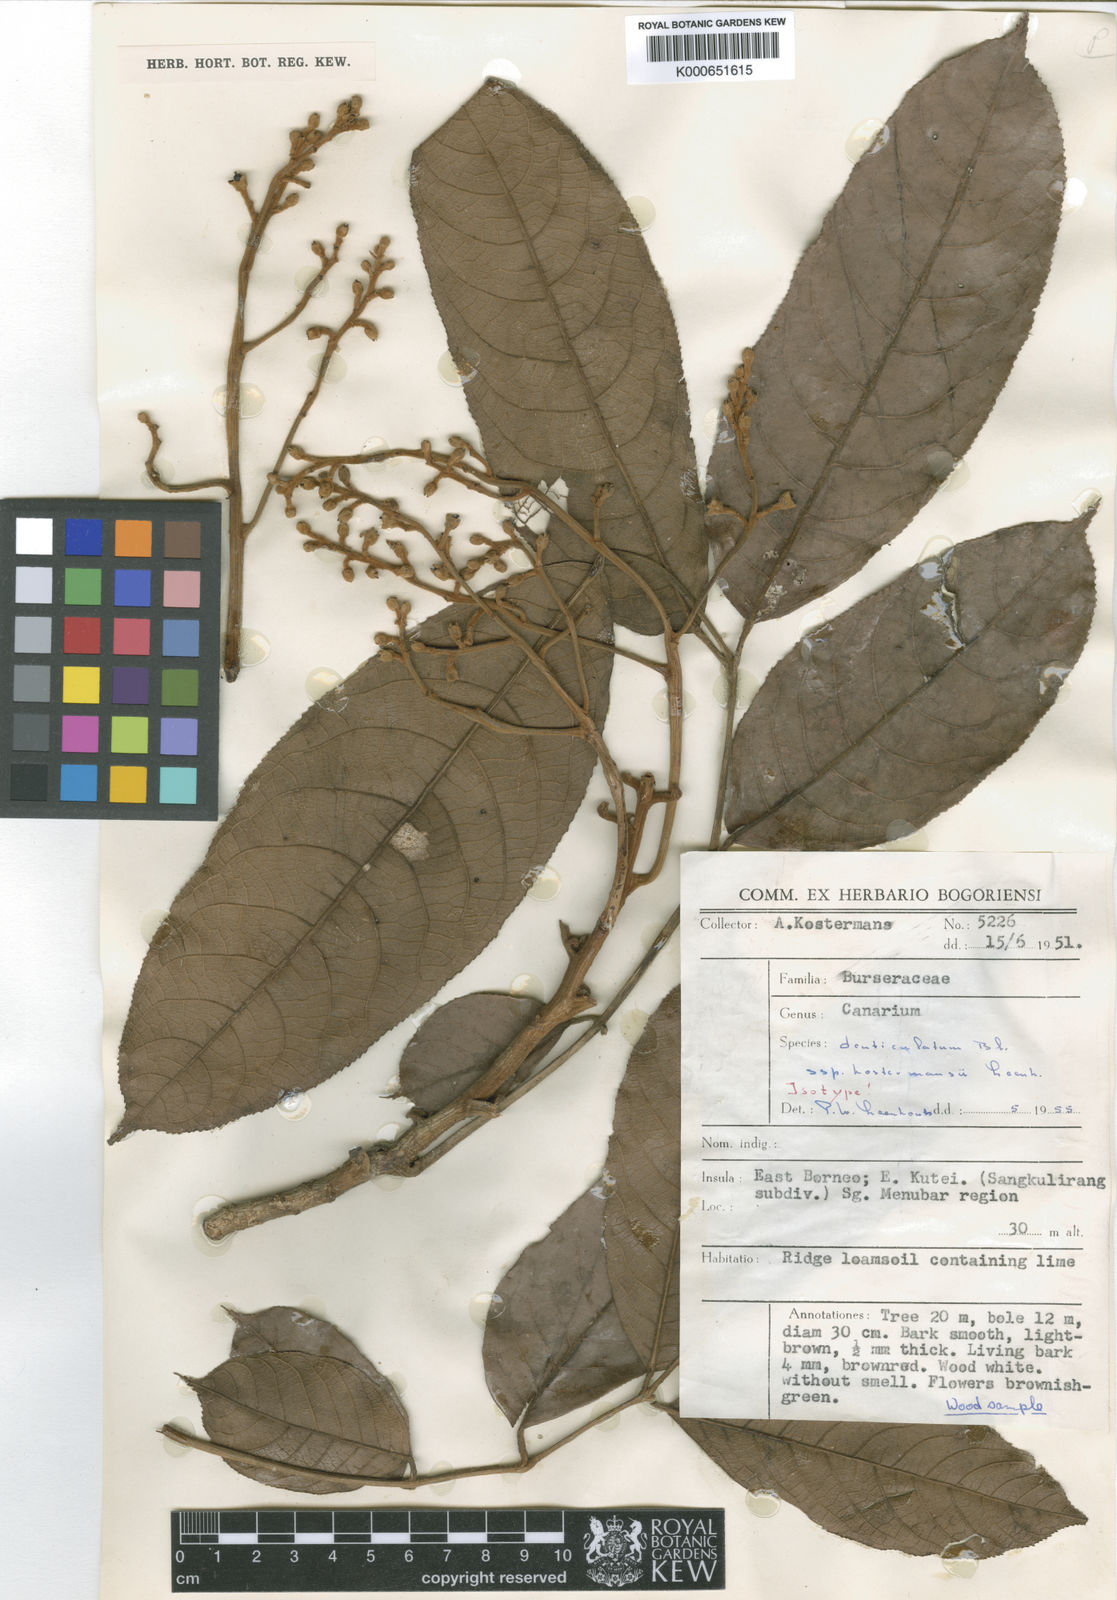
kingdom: Plantae
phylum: Tracheophyta
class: Magnoliopsida
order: Sapindales
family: Burseraceae
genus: Canarium
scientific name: Canarium denticulatum
